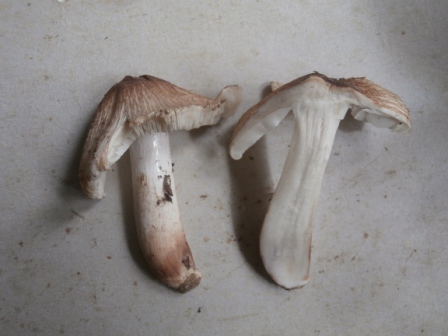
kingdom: Fungi
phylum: Basidiomycota
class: Agaricomycetes
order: Agaricales
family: Inocybaceae
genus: Pseudosperma
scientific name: Pseudosperma rimosum
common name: gulbladet trævlhat
